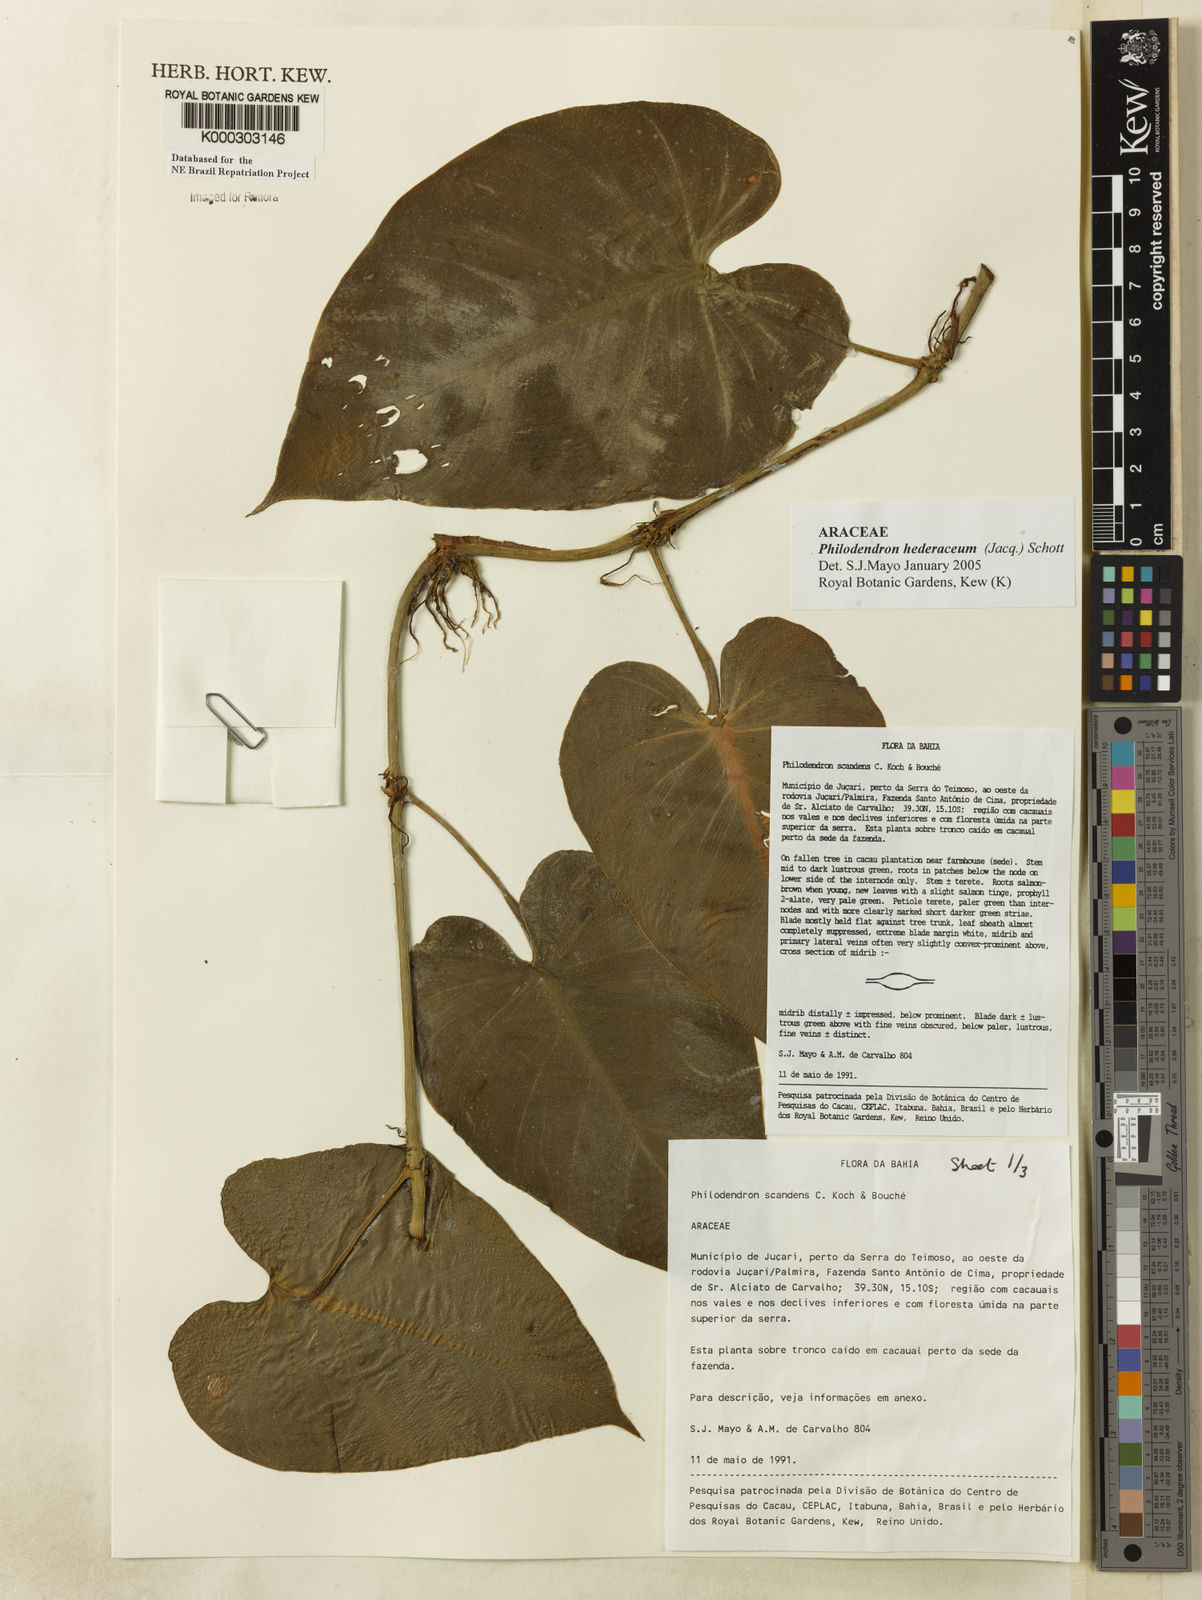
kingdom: Plantae
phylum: Tracheophyta
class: Liliopsida
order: Alismatales
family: Araceae
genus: Philodendron
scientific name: Philodendron hederaceum
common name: Vilevine
